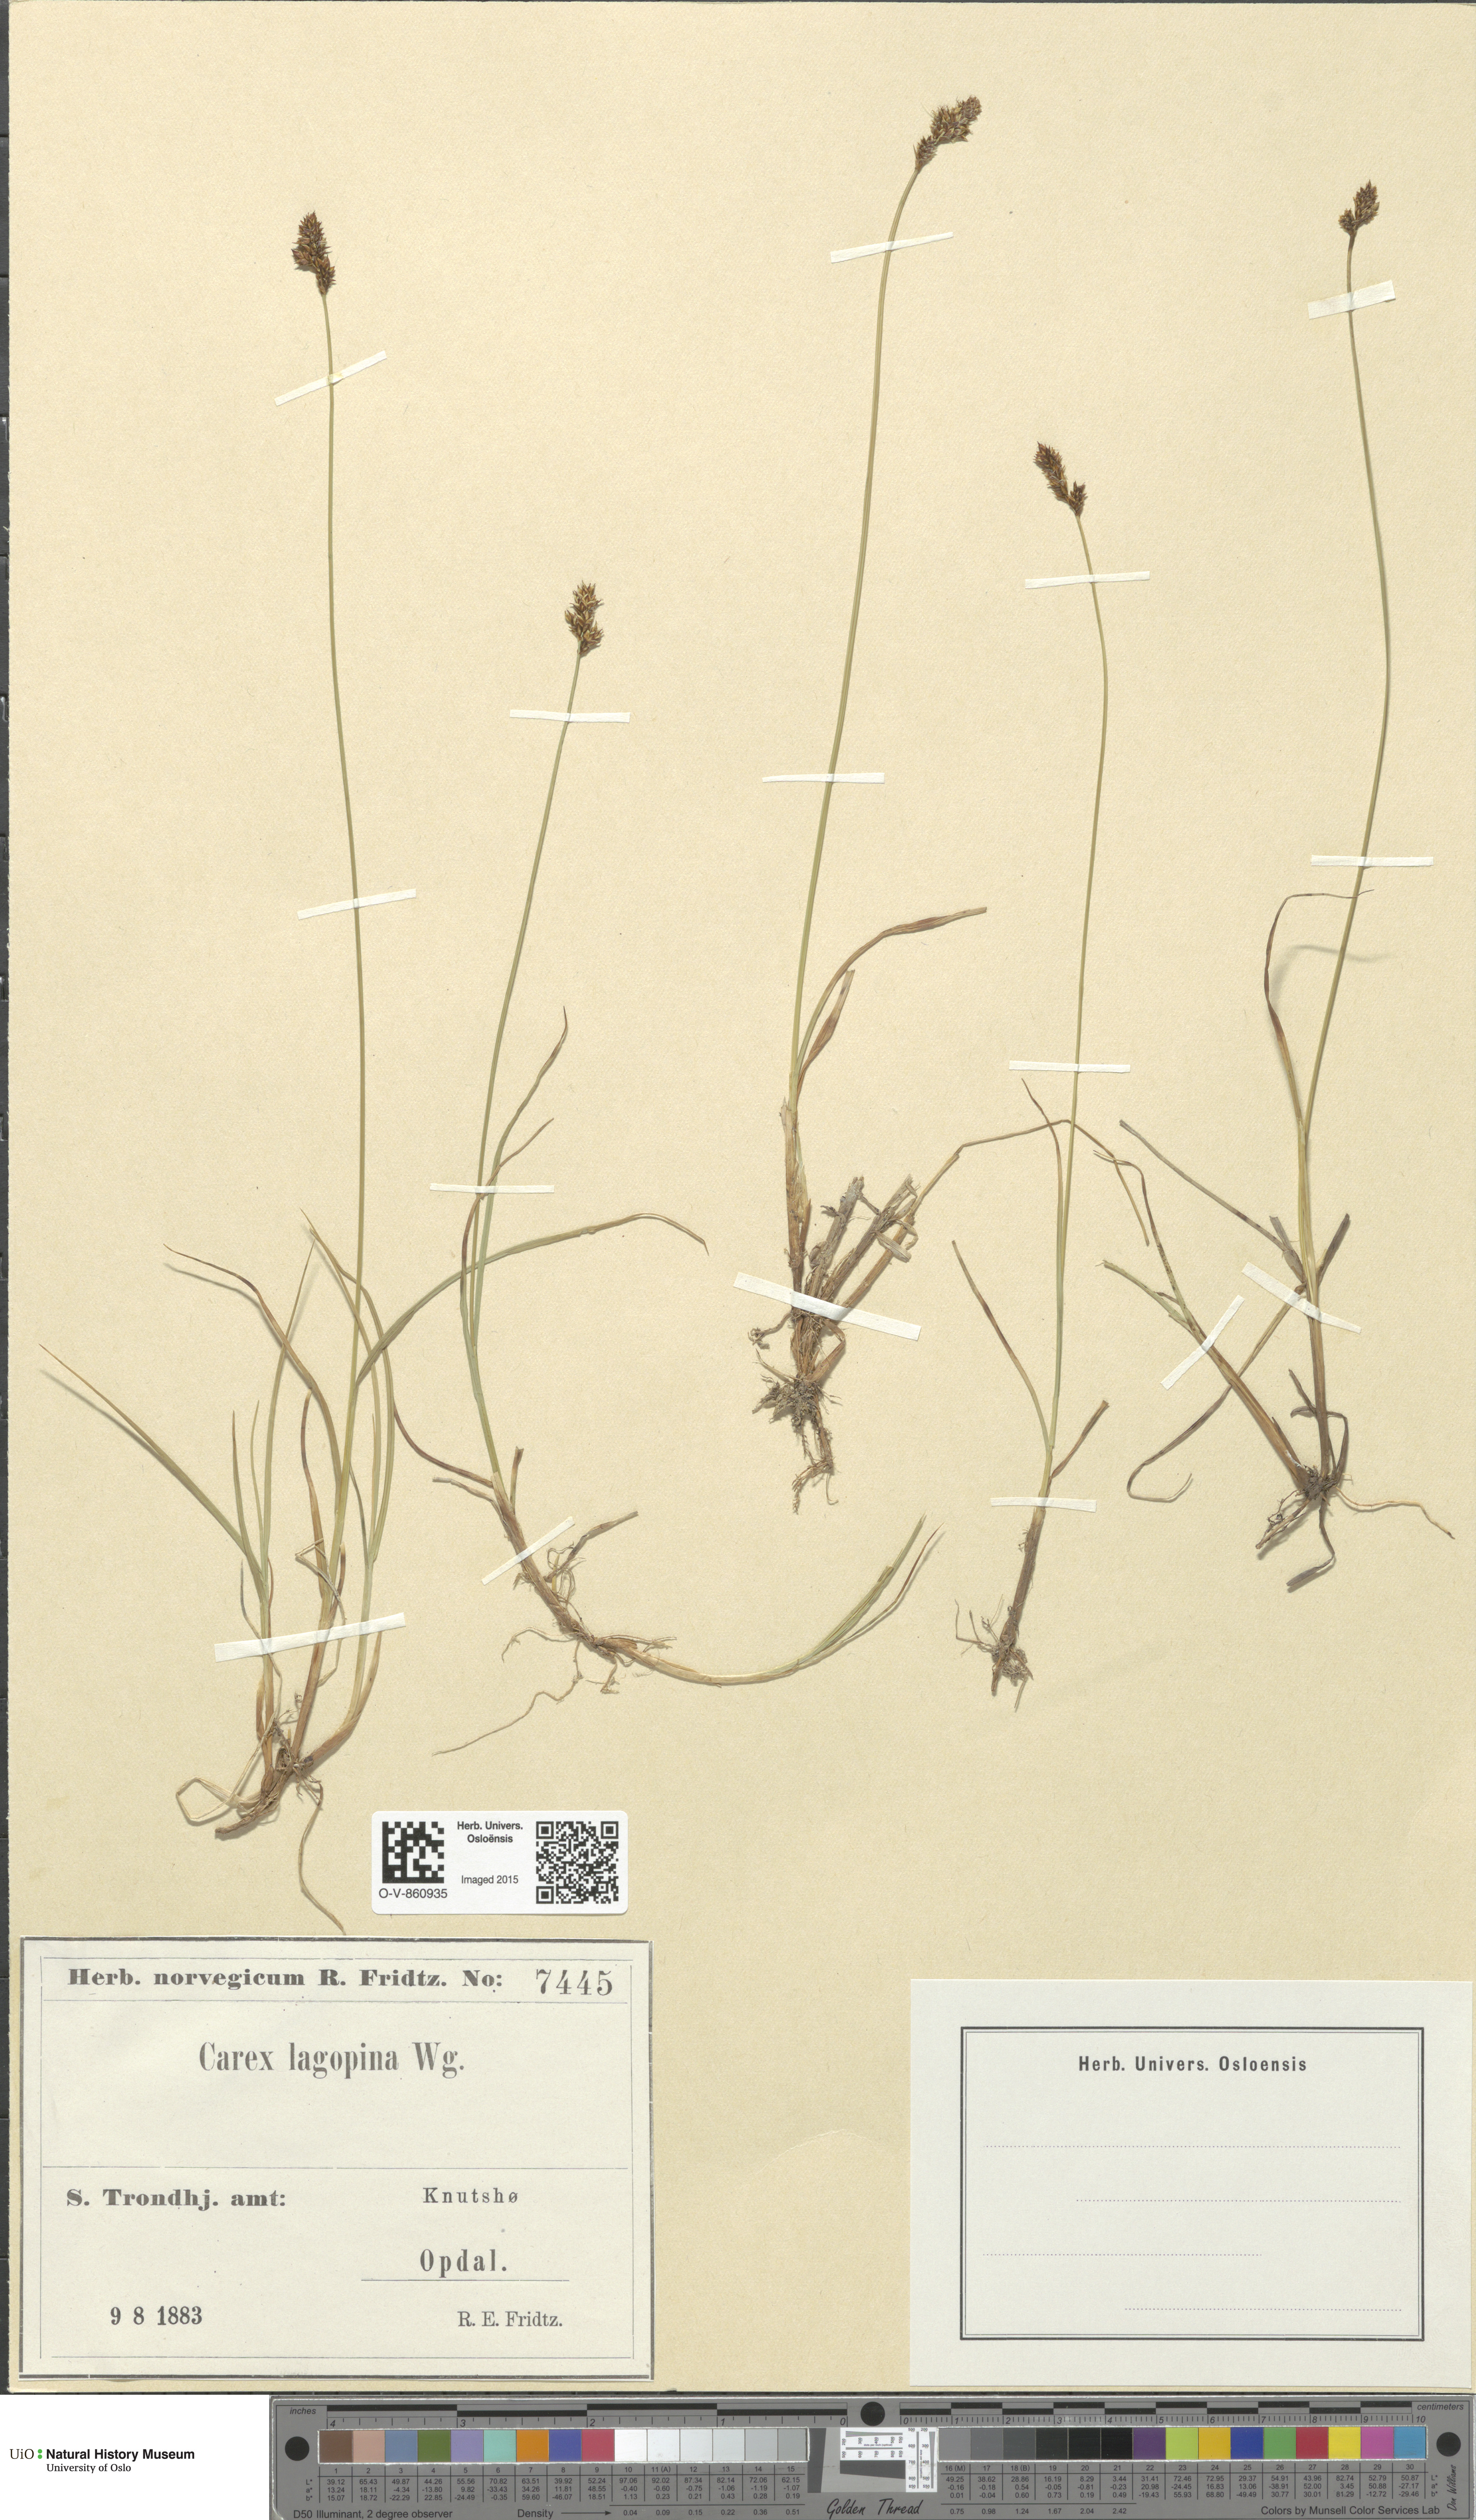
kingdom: Plantae
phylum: Tracheophyta
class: Liliopsida
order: Poales
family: Cyperaceae
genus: Carex
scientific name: Carex lachenalii
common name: Hare's-foot sedge
